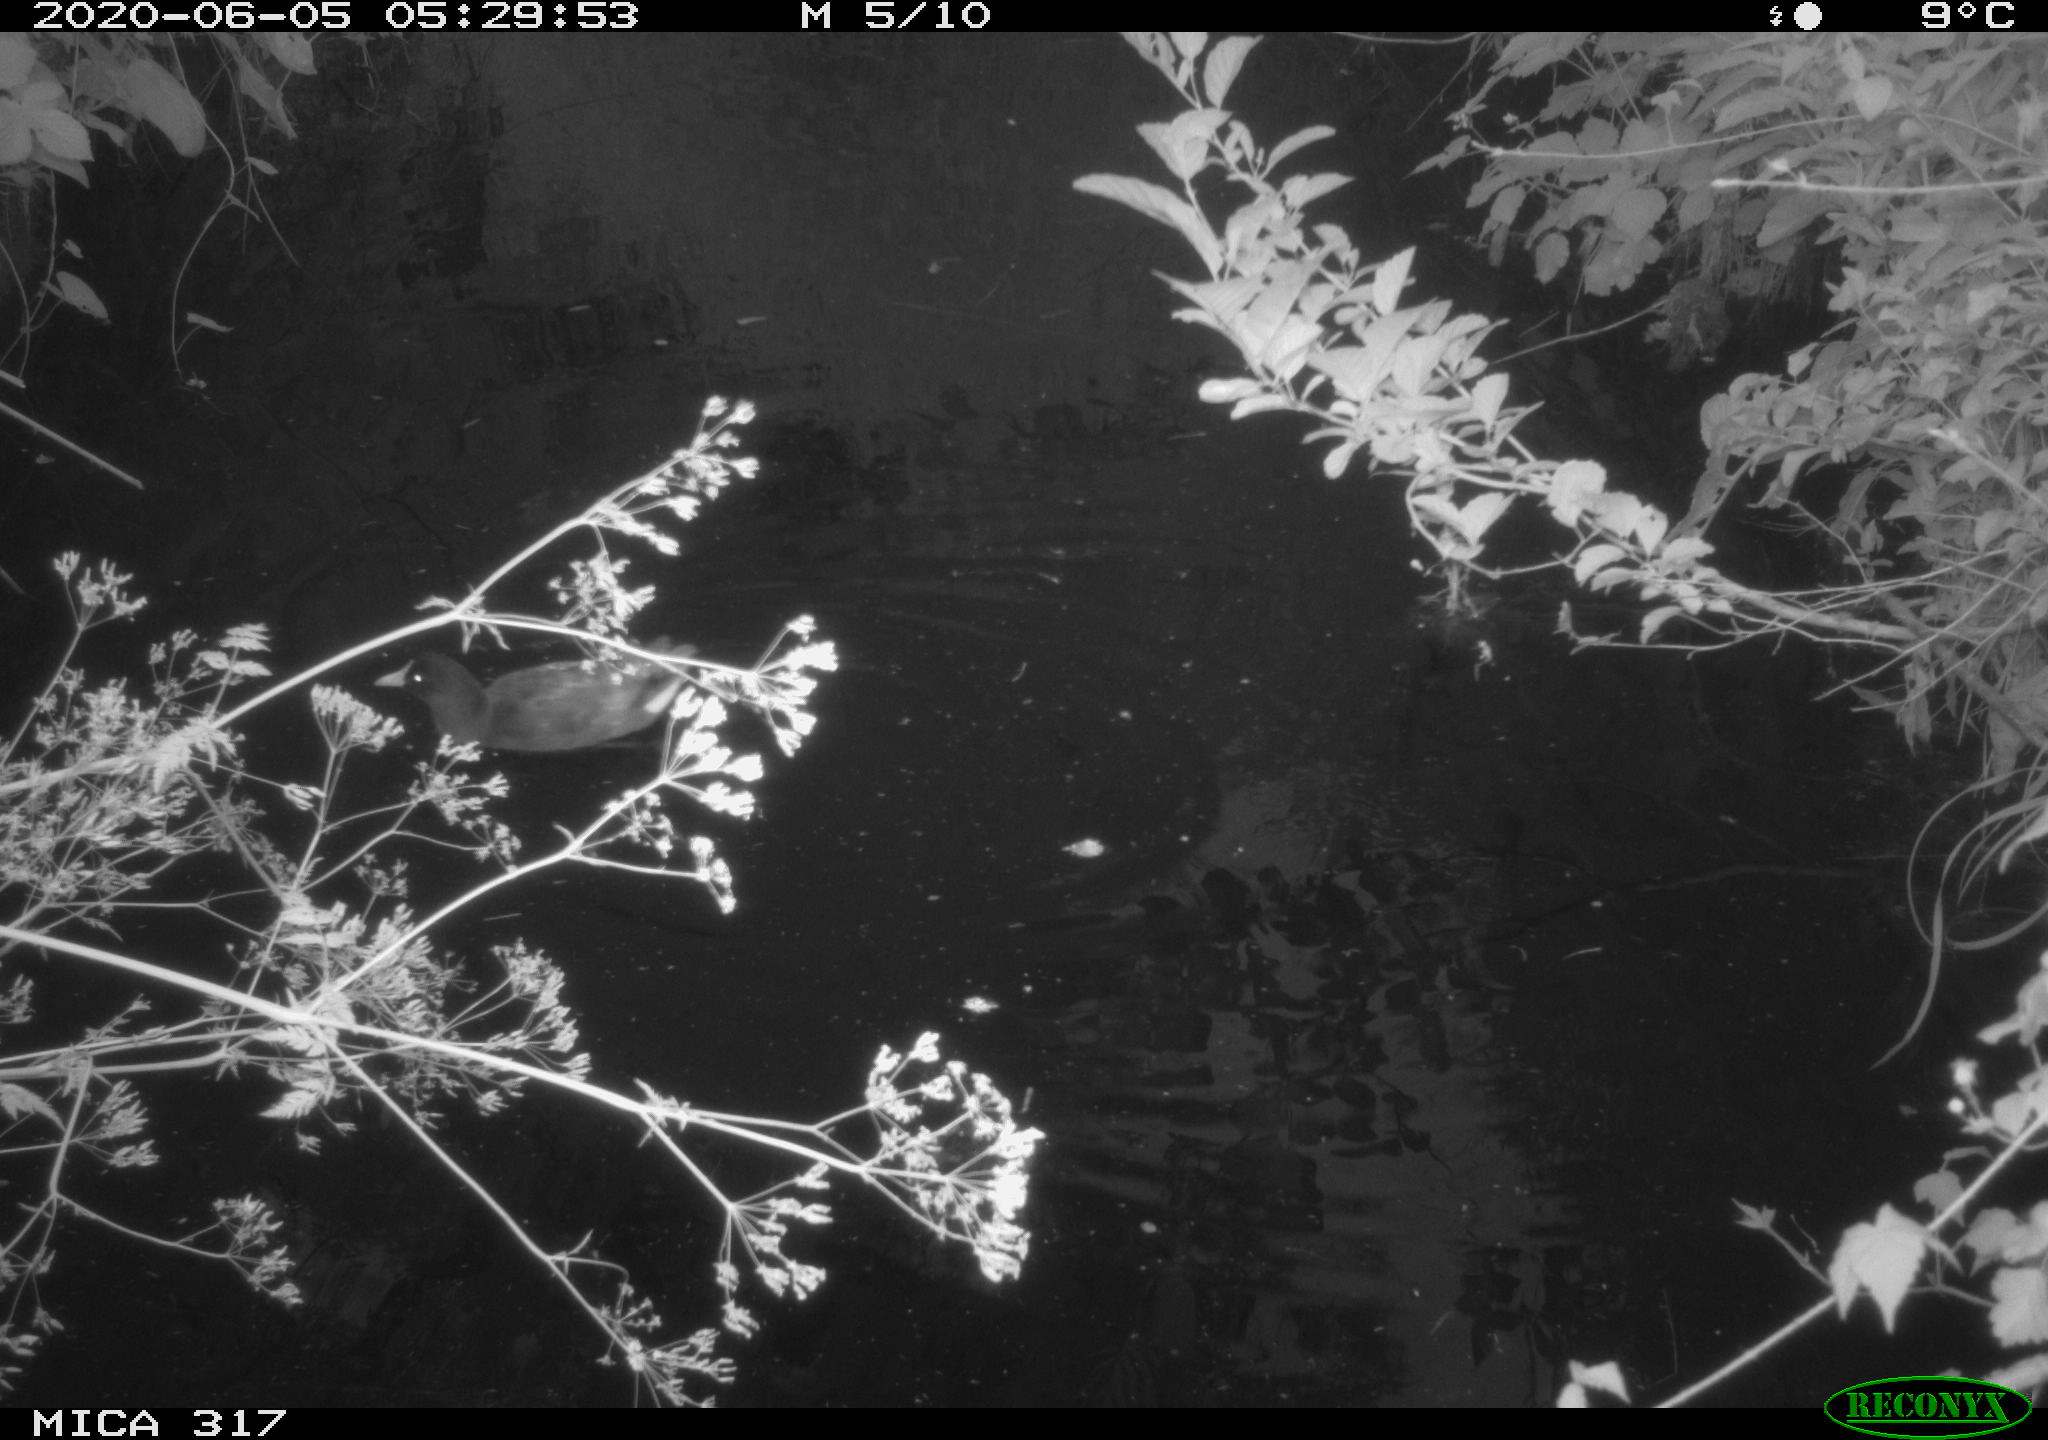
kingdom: Animalia
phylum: Chordata
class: Aves
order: Gruiformes
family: Rallidae
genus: Gallinula
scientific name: Gallinula chloropus
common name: Common moorhen
